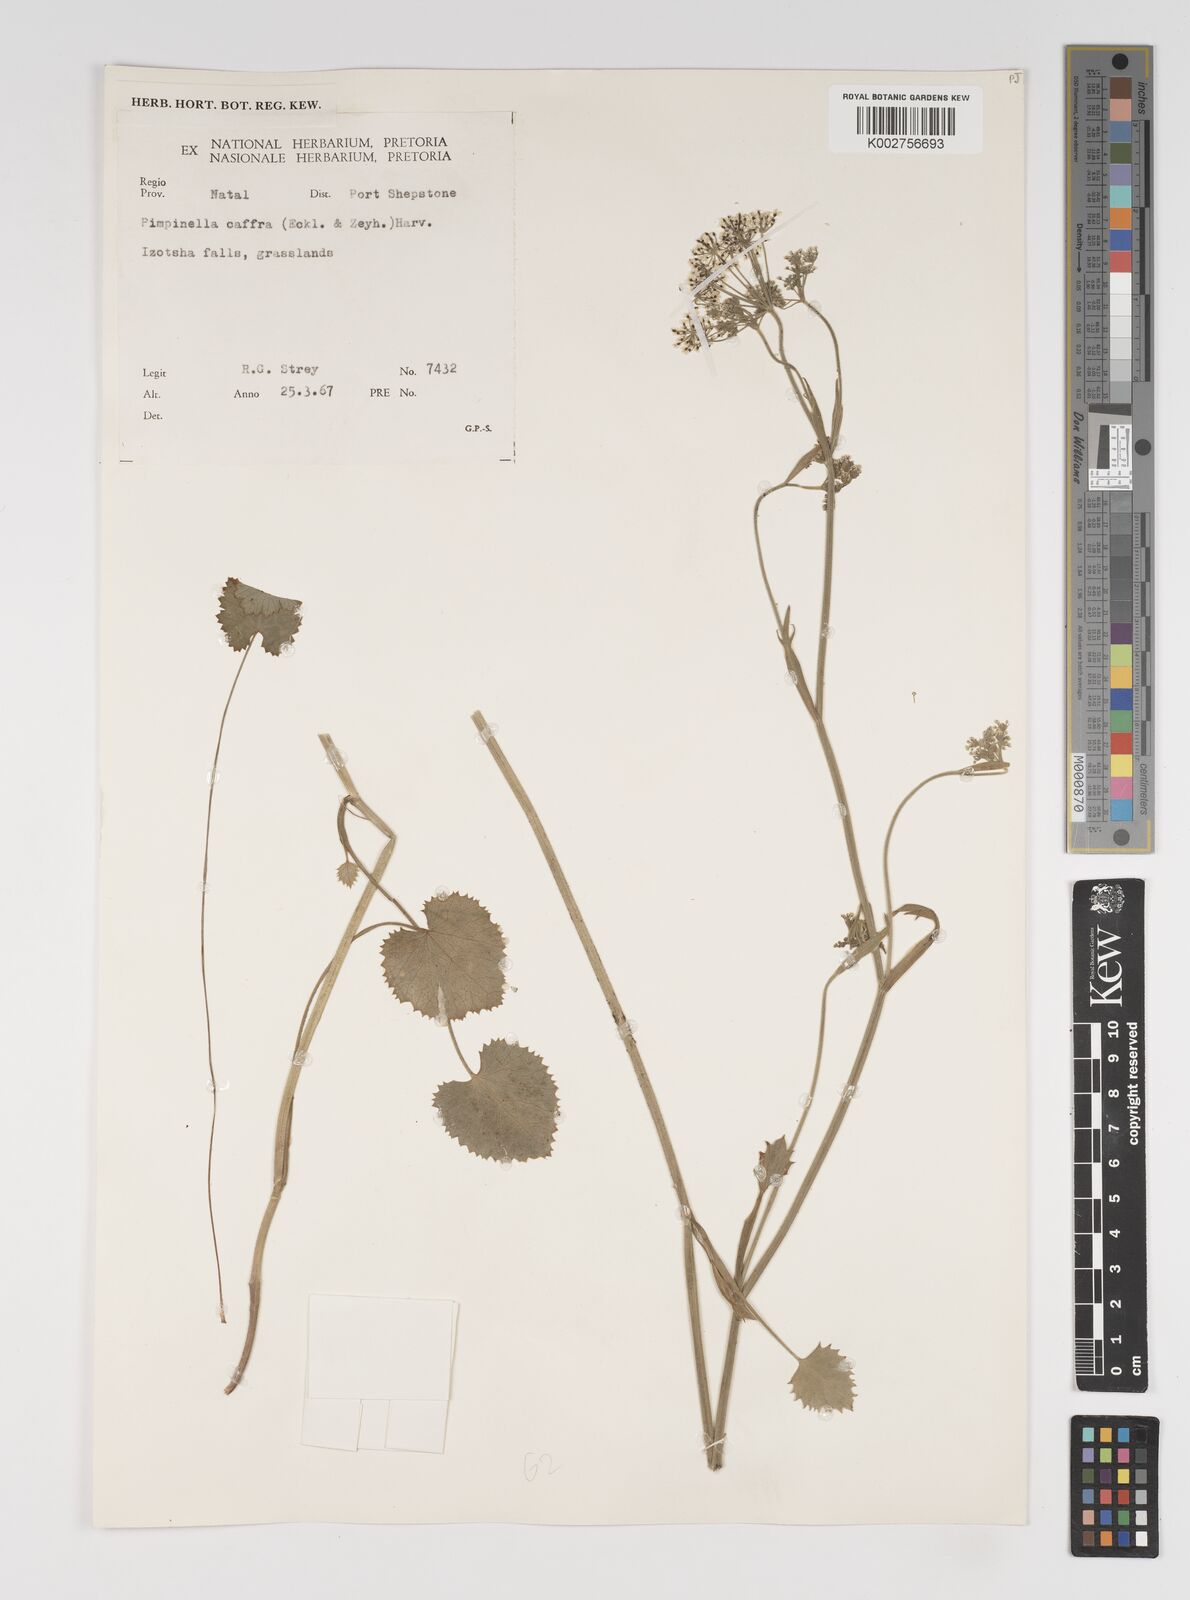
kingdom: Plantae
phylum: Tracheophyta
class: Magnoliopsida
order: Apiales
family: Apiaceae
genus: Pimpinella
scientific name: Pimpinella
